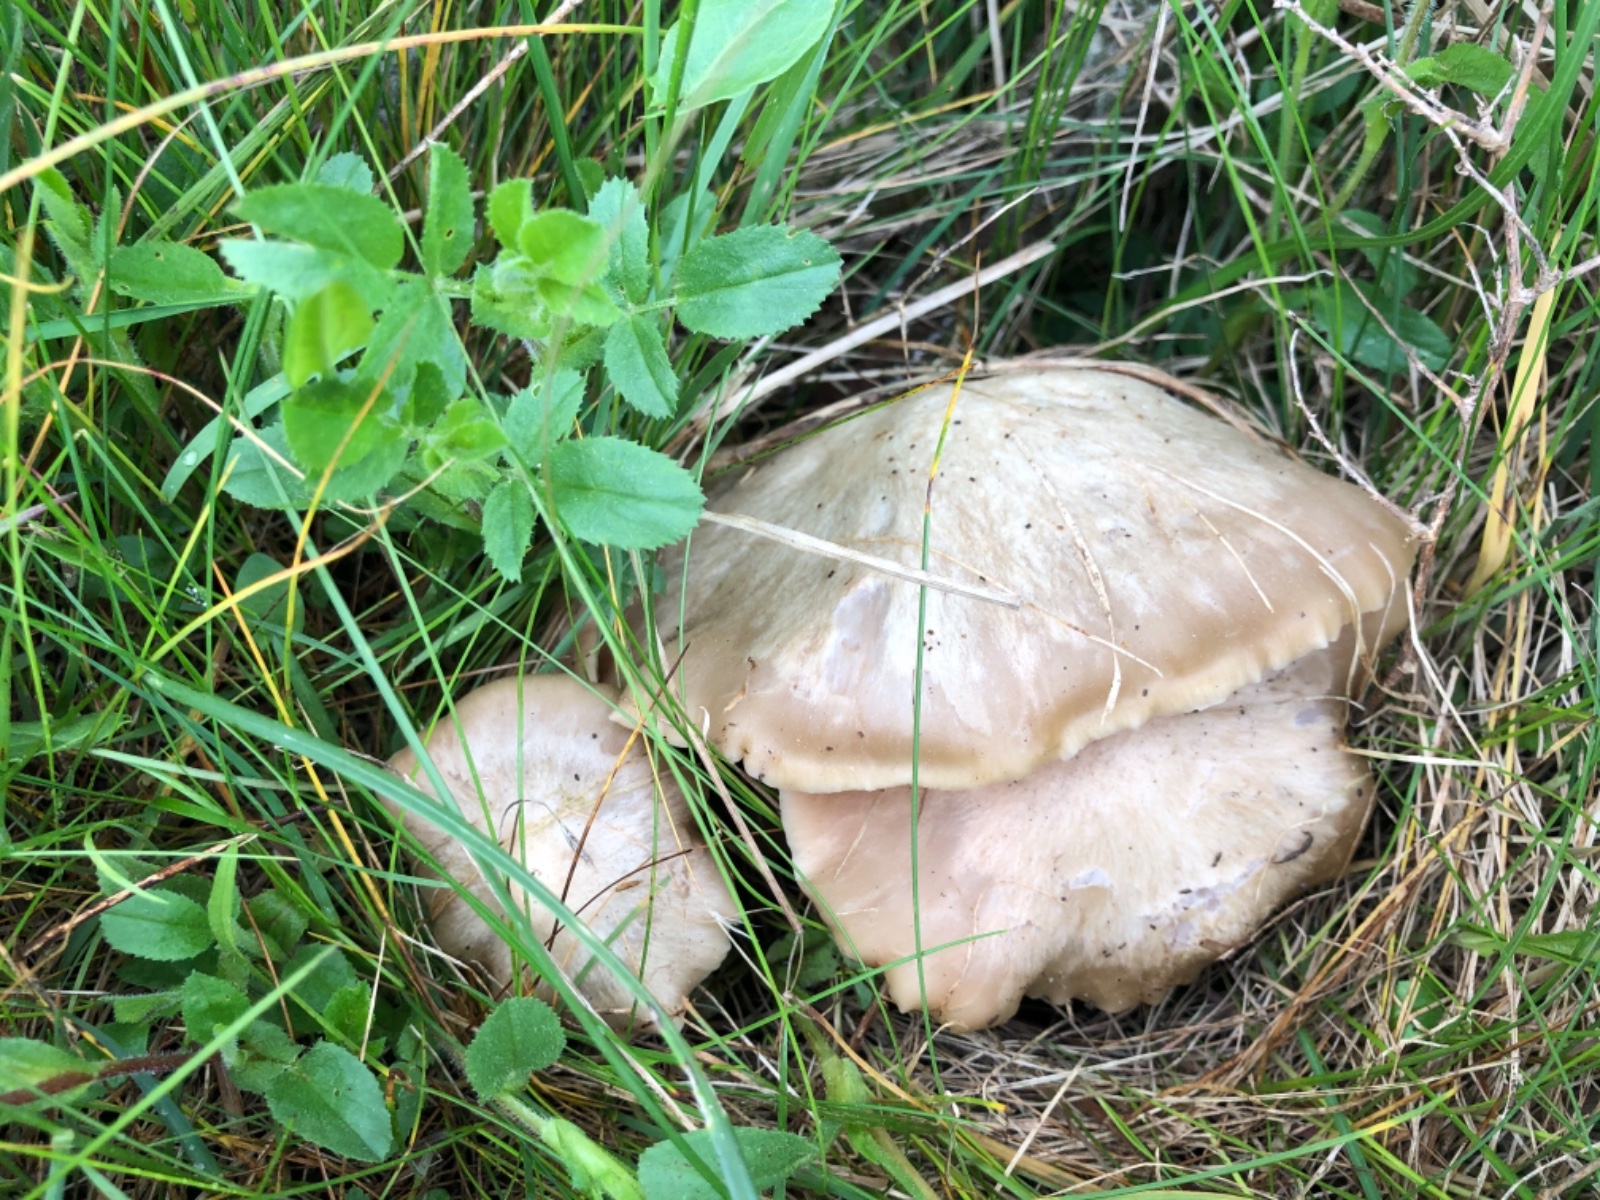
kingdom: Fungi
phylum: Basidiomycota
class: Agaricomycetes
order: Agaricales
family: Entolomataceae
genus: Entoloma
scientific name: Entoloma sepium
